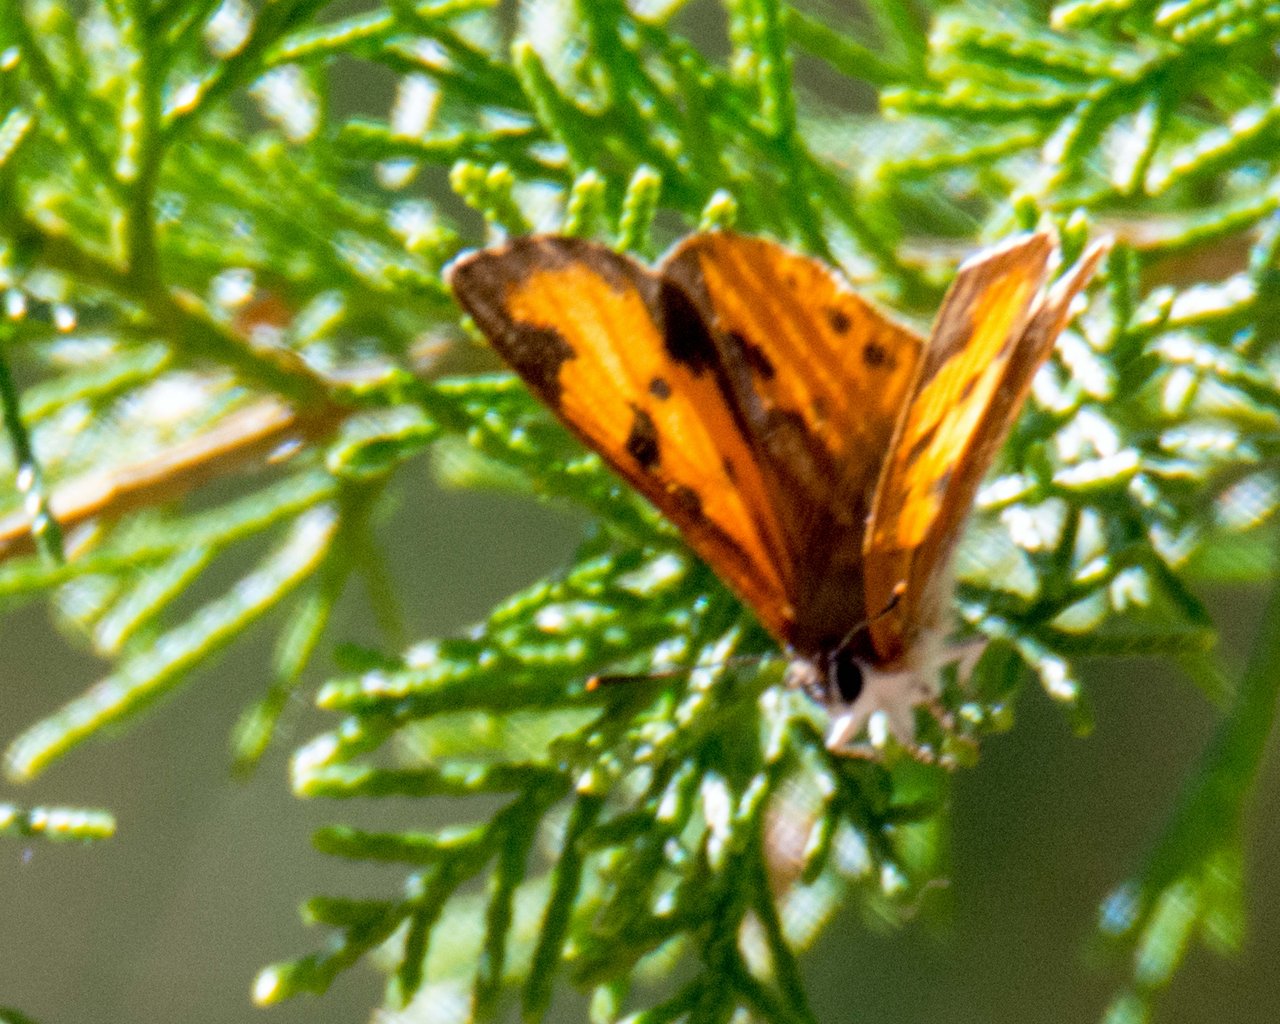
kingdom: Animalia
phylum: Arthropoda
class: Insecta
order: Lepidoptera
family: Lycaenidae
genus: Feniseca
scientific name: Feniseca tarquinius
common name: Harvester
